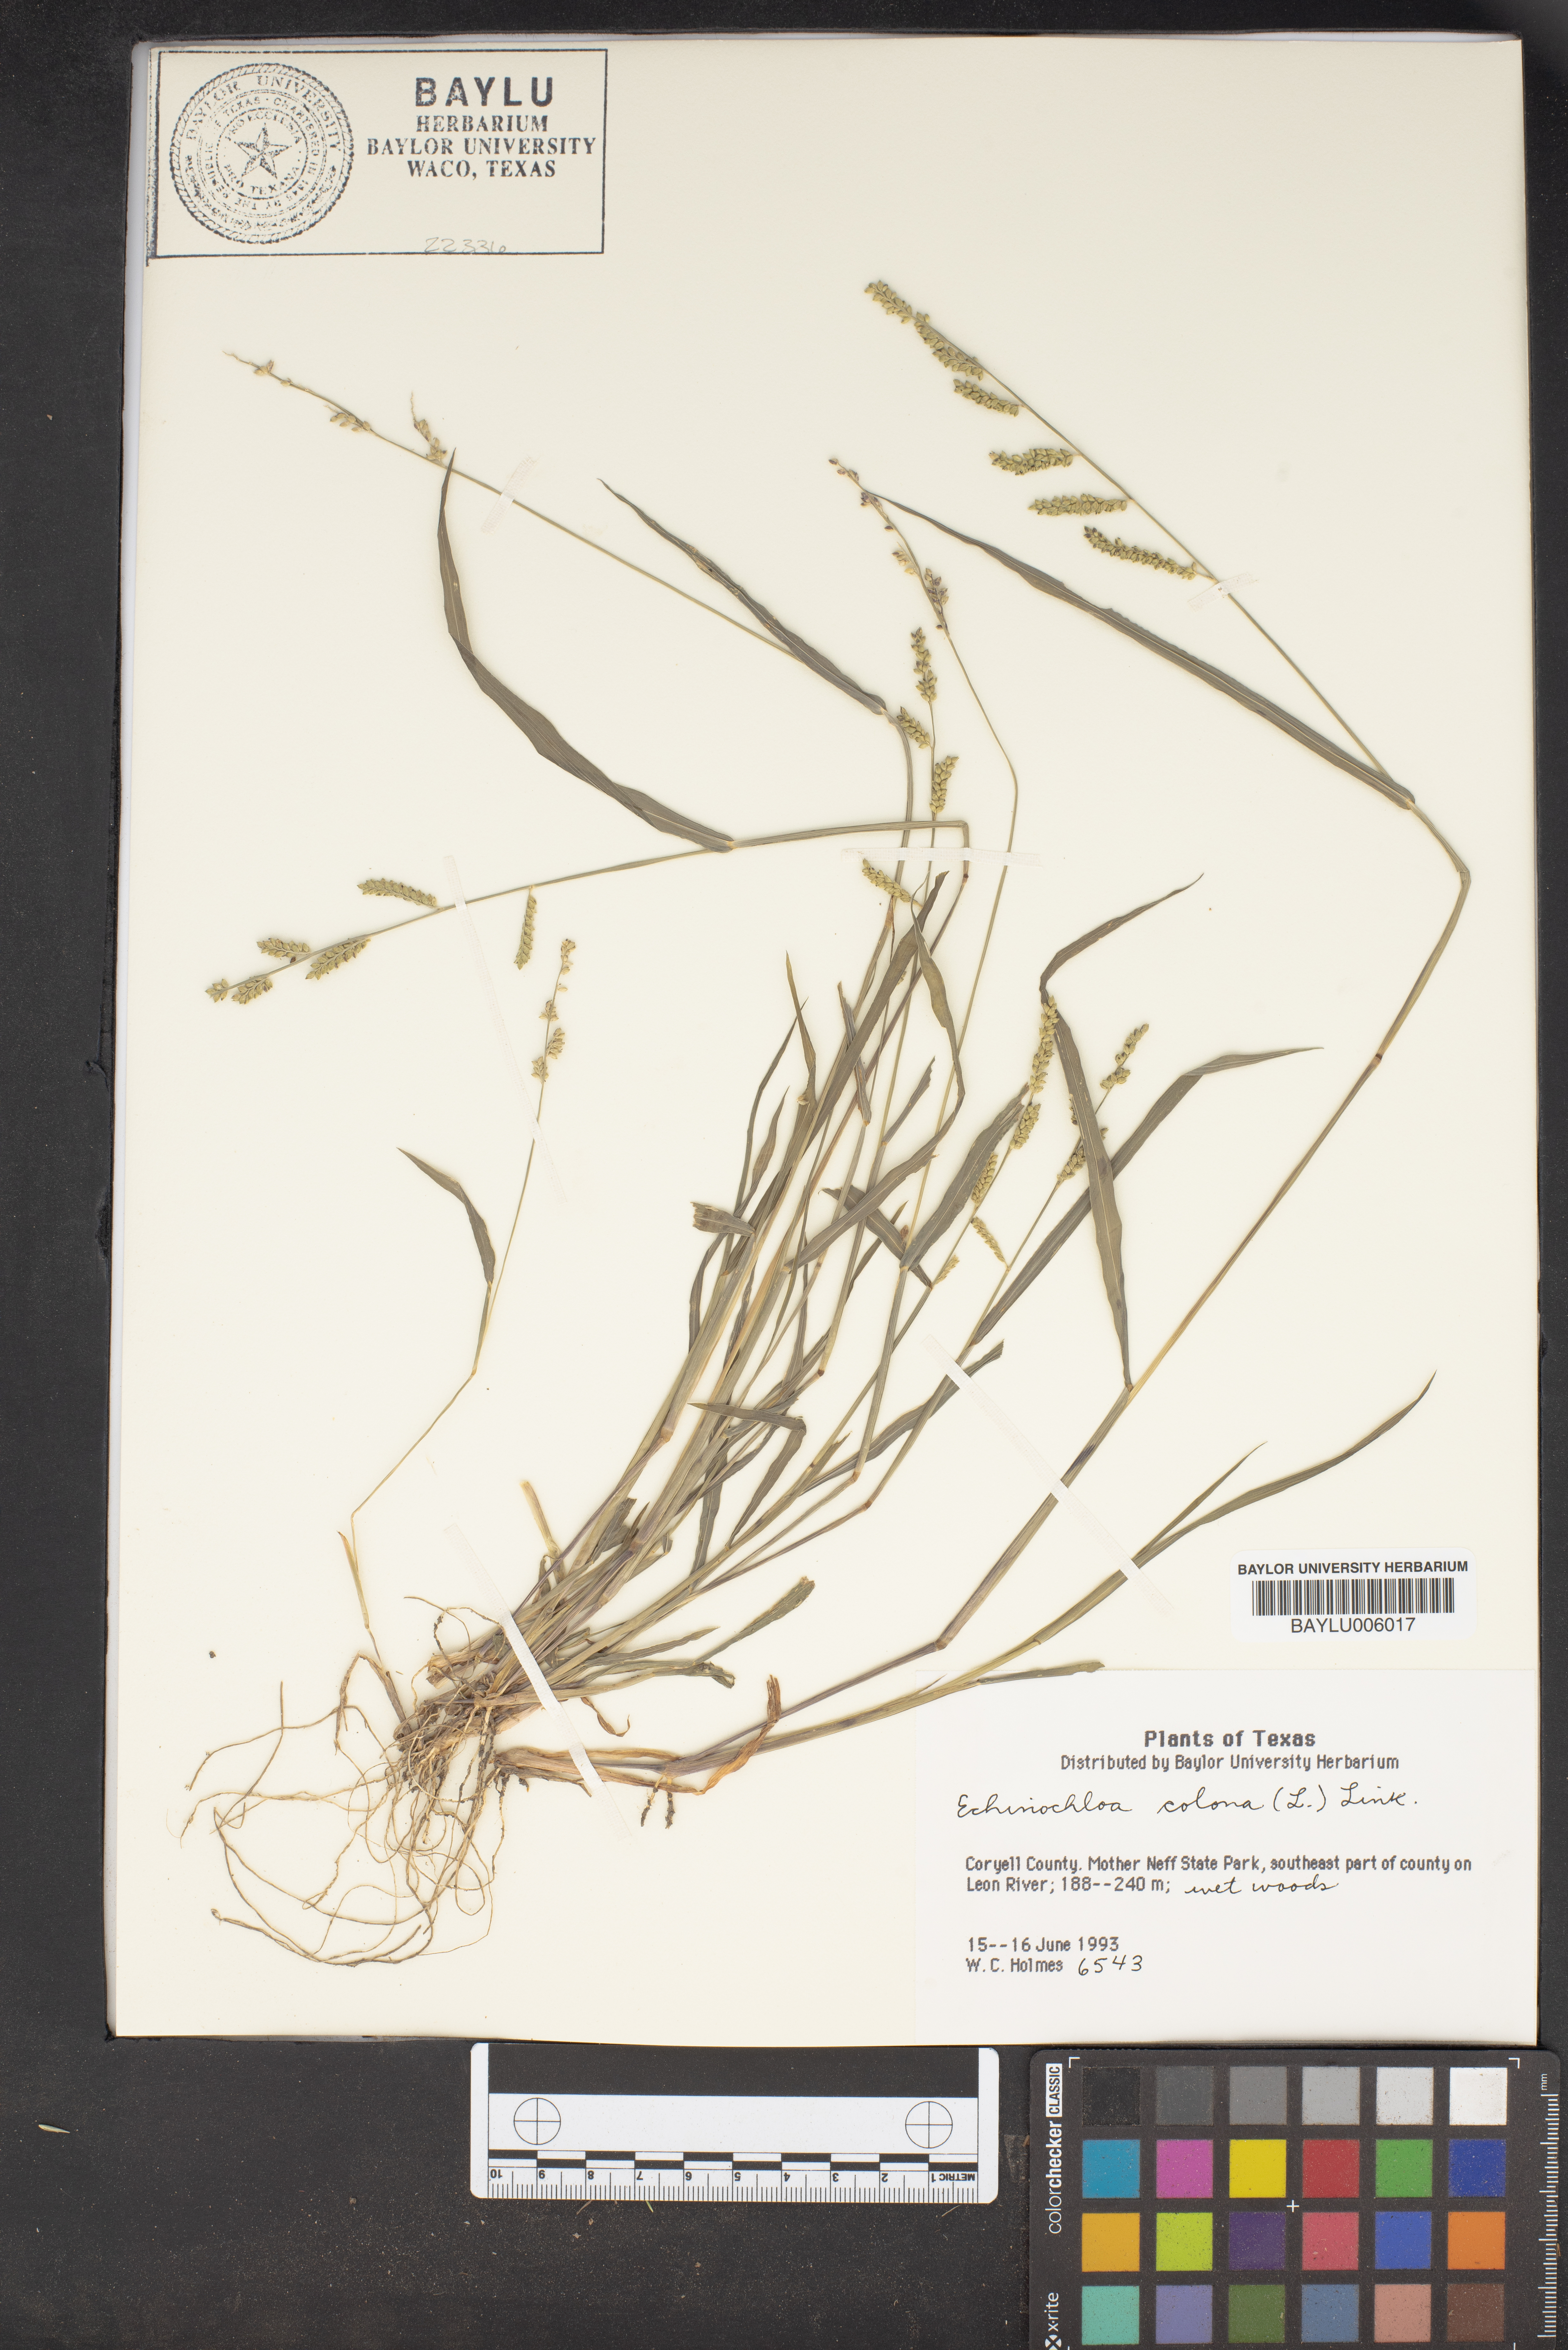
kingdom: Plantae
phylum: Tracheophyta
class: Liliopsida
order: Poales
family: Poaceae
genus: Echinochloa
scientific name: Echinochloa colonum
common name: Jungle rice
